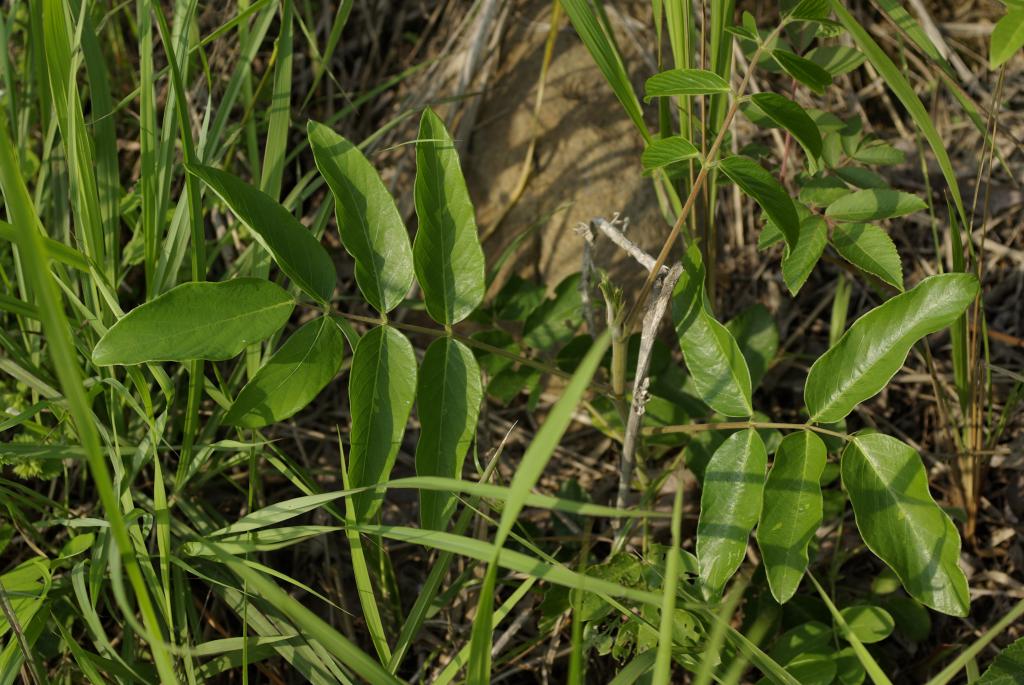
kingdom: Plantae
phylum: Tracheophyta
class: Magnoliopsida
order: Fabales
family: Fabaceae
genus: Uraria
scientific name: Uraria crinita
